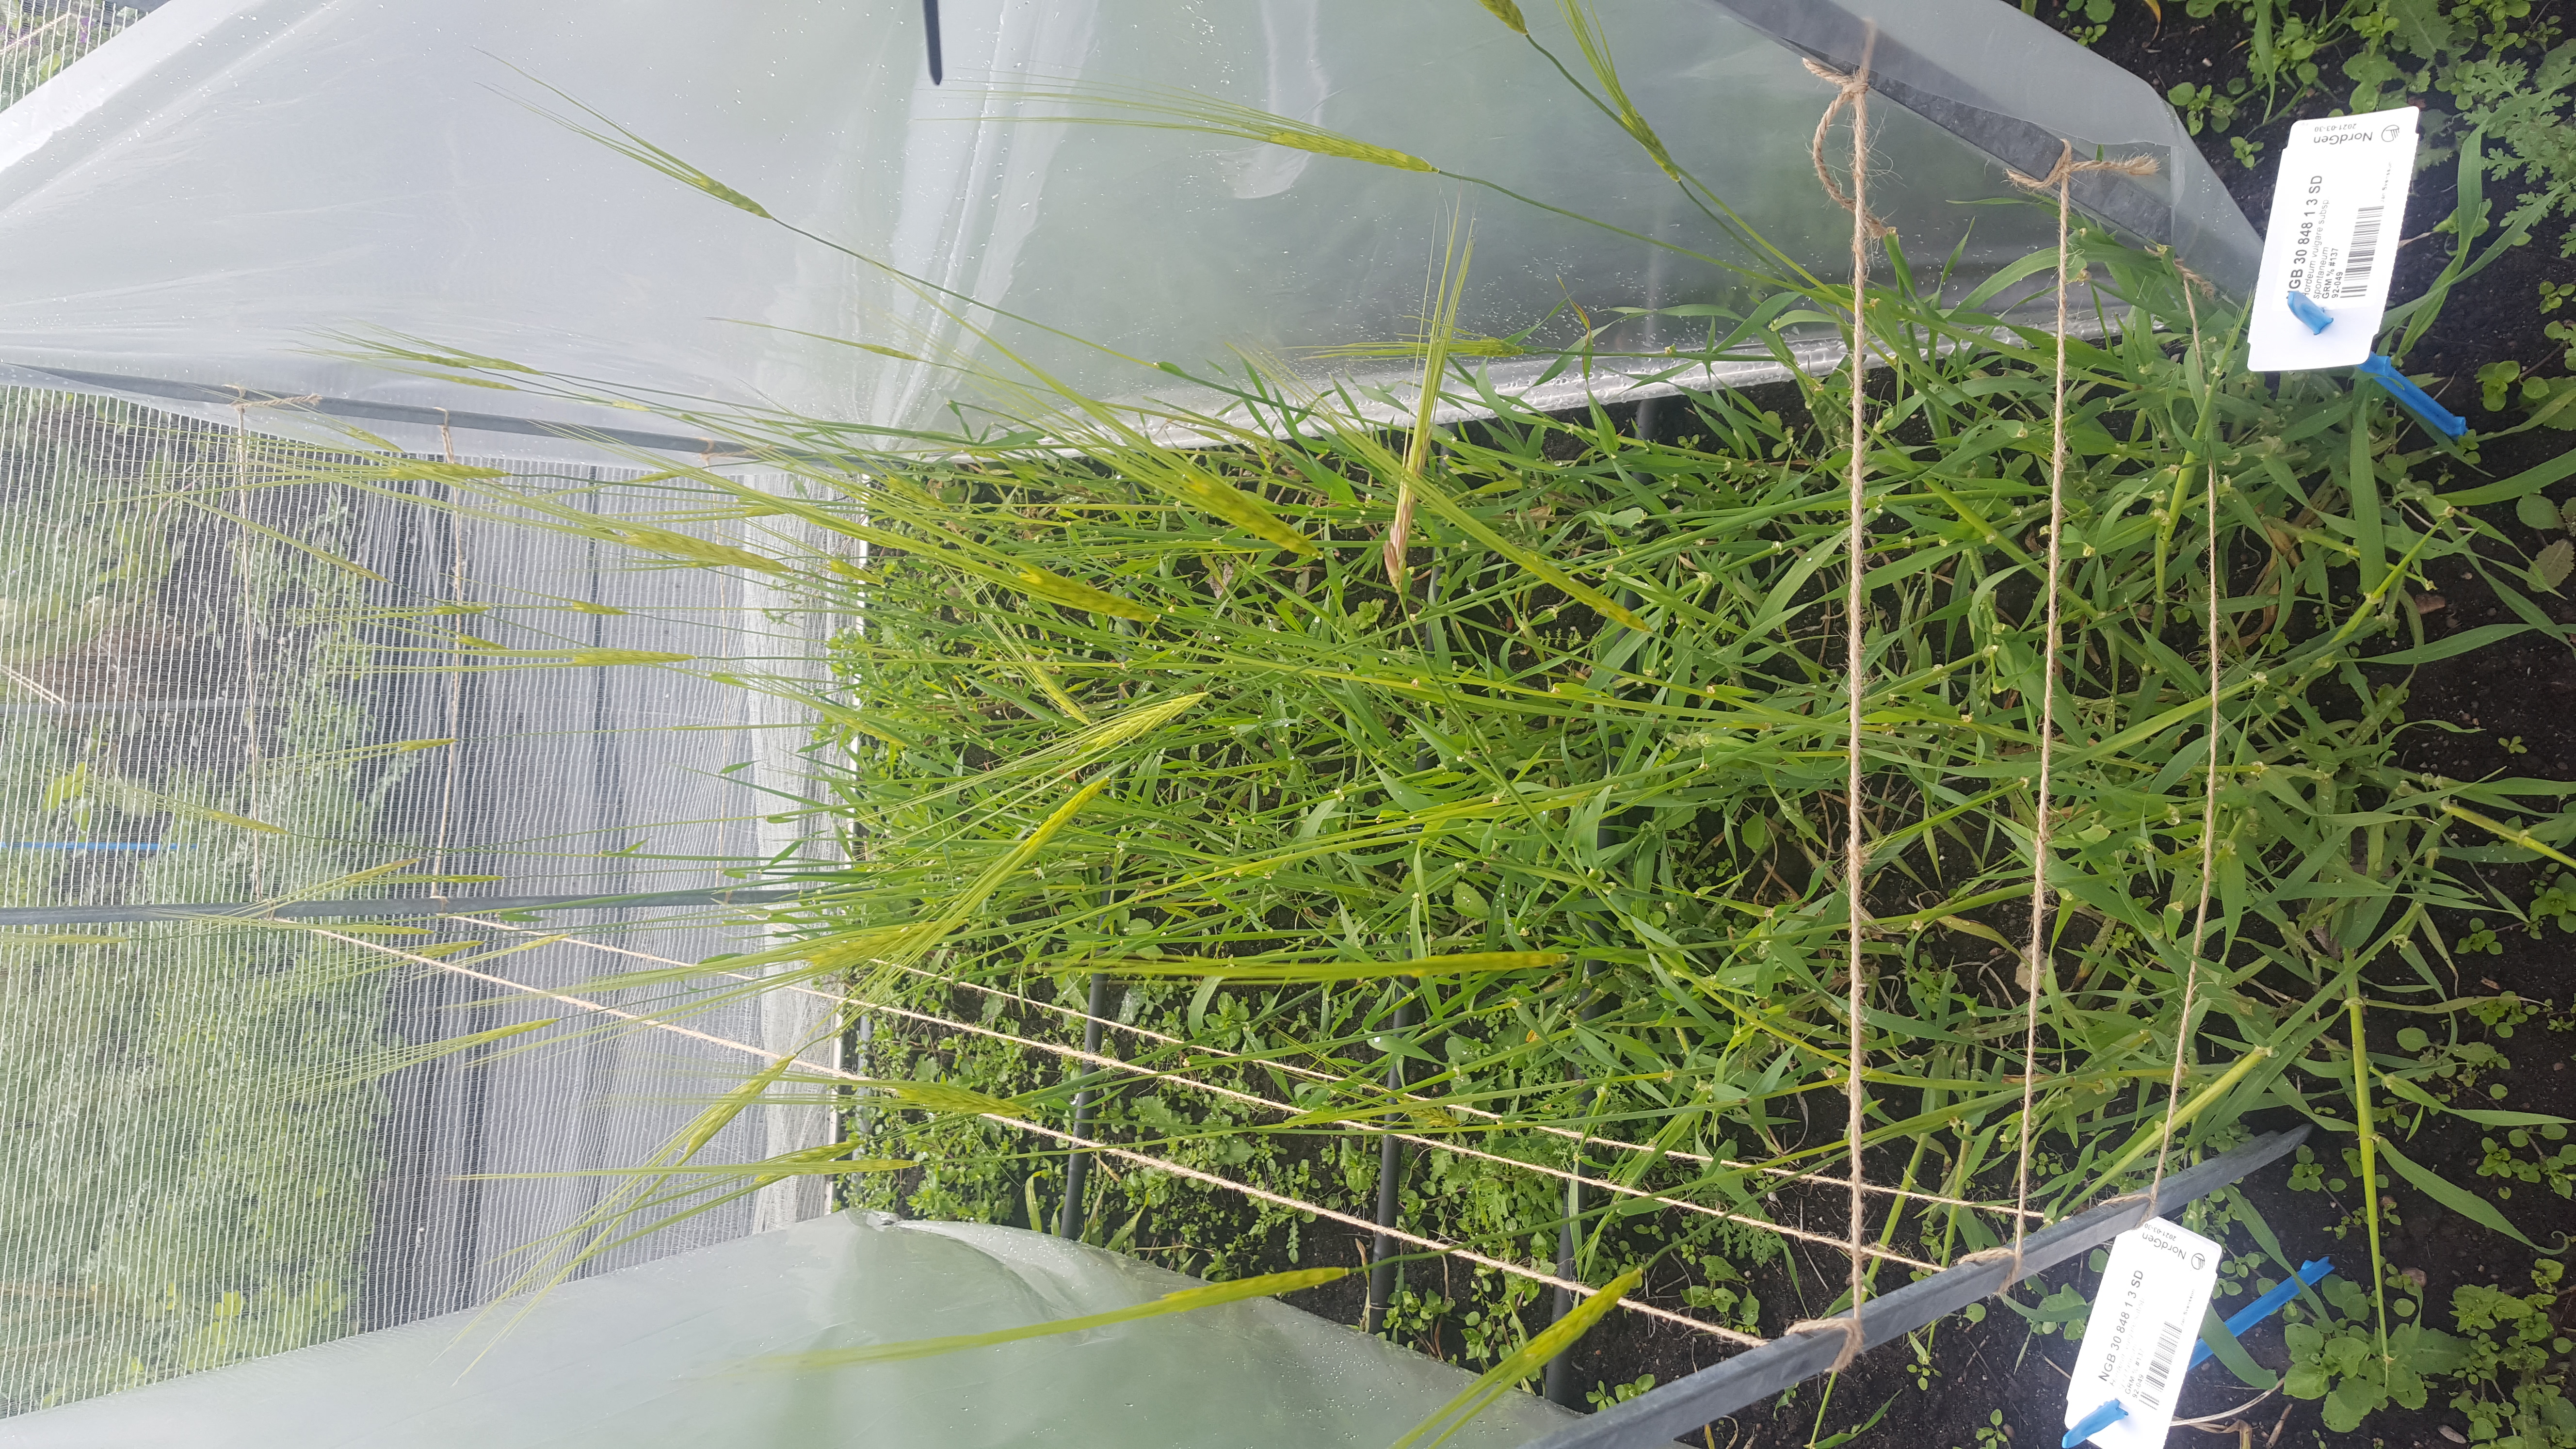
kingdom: Plantae
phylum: Tracheophyta
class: Liliopsida
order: Poales
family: Poaceae
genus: Hordeum
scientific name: Hordeum spontaneum
